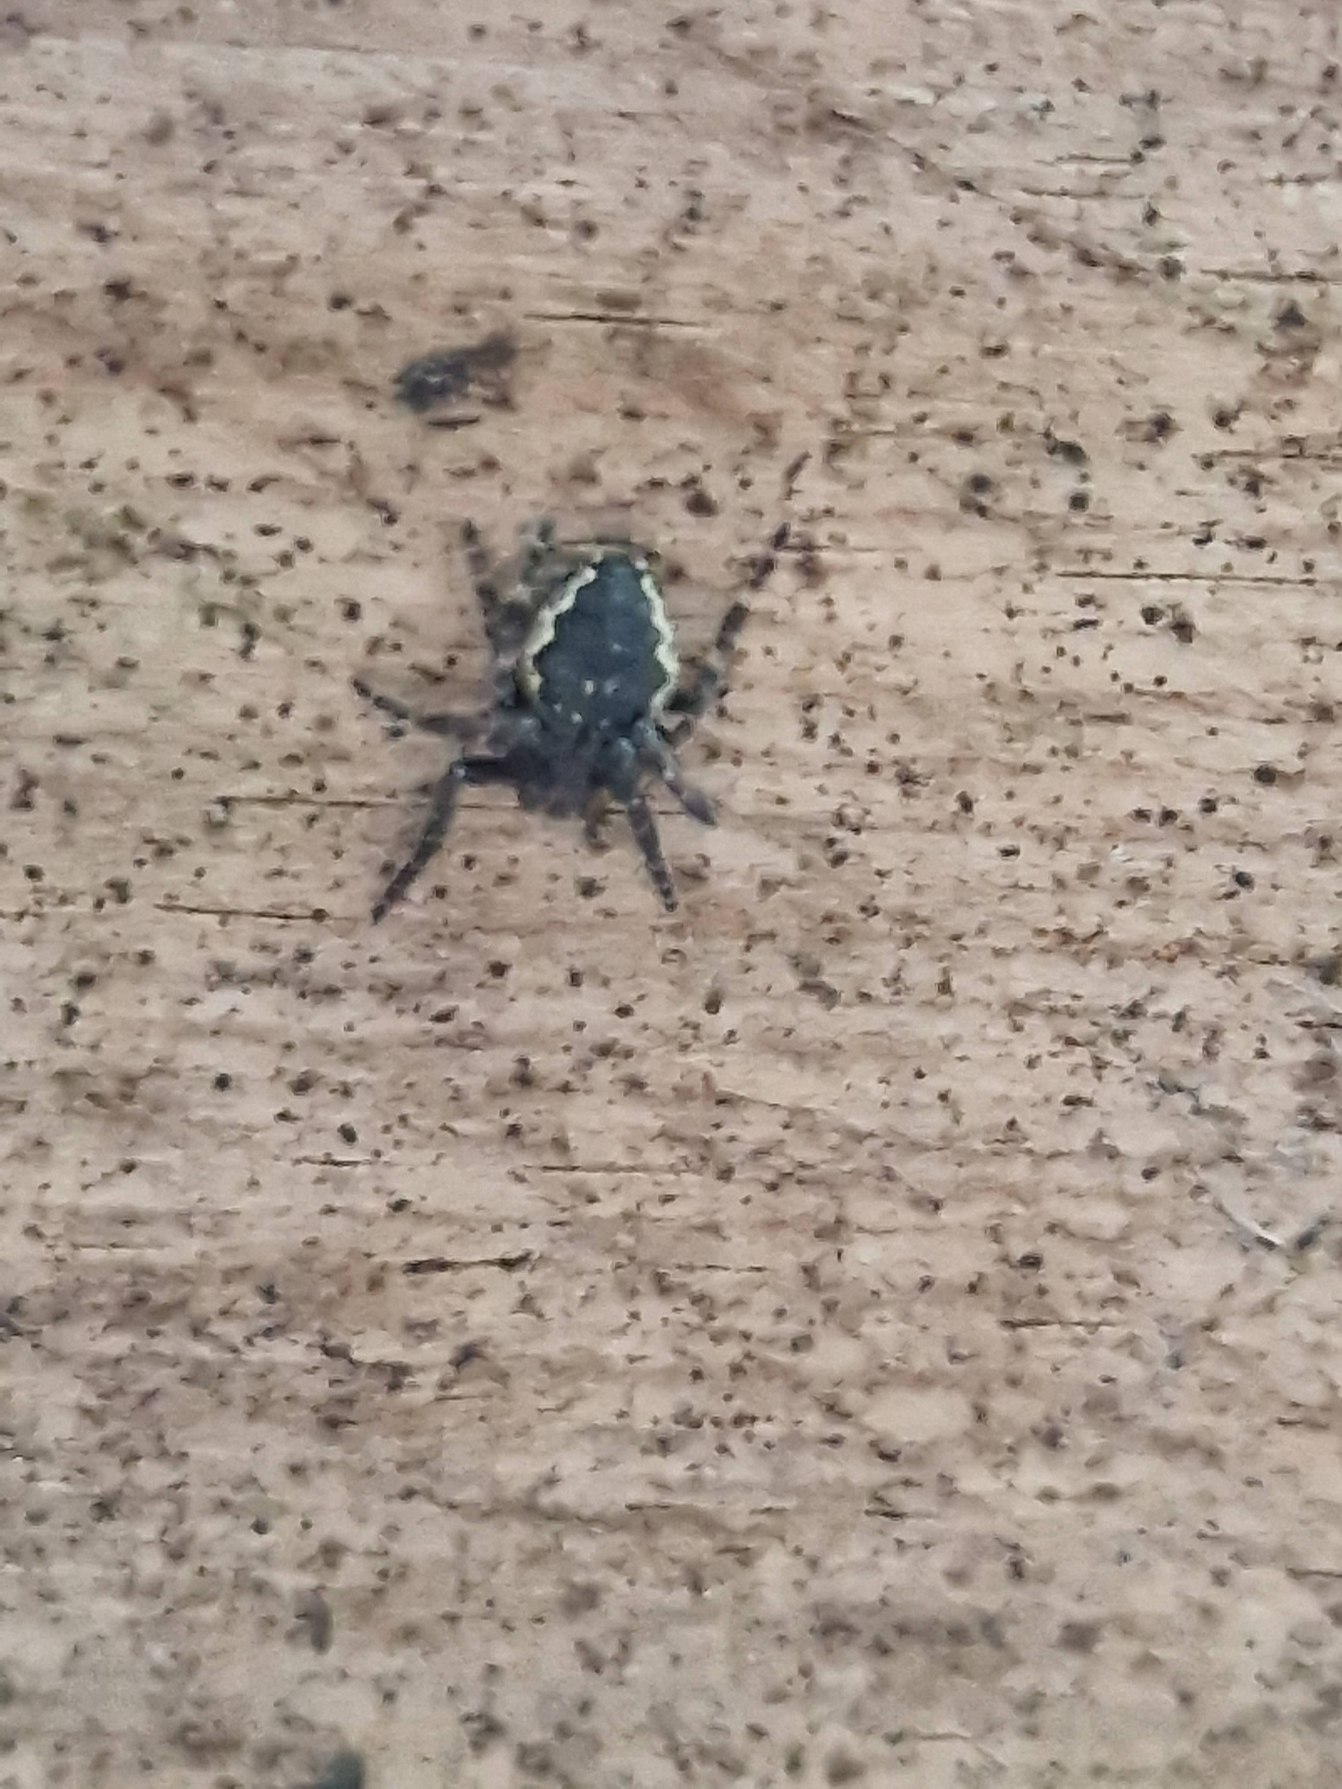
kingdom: Animalia
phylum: Arthropoda
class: Arachnida
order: Araneae
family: Araneidae
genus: Nuctenea
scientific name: Nuctenea umbratica
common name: Flad hjulspinder
